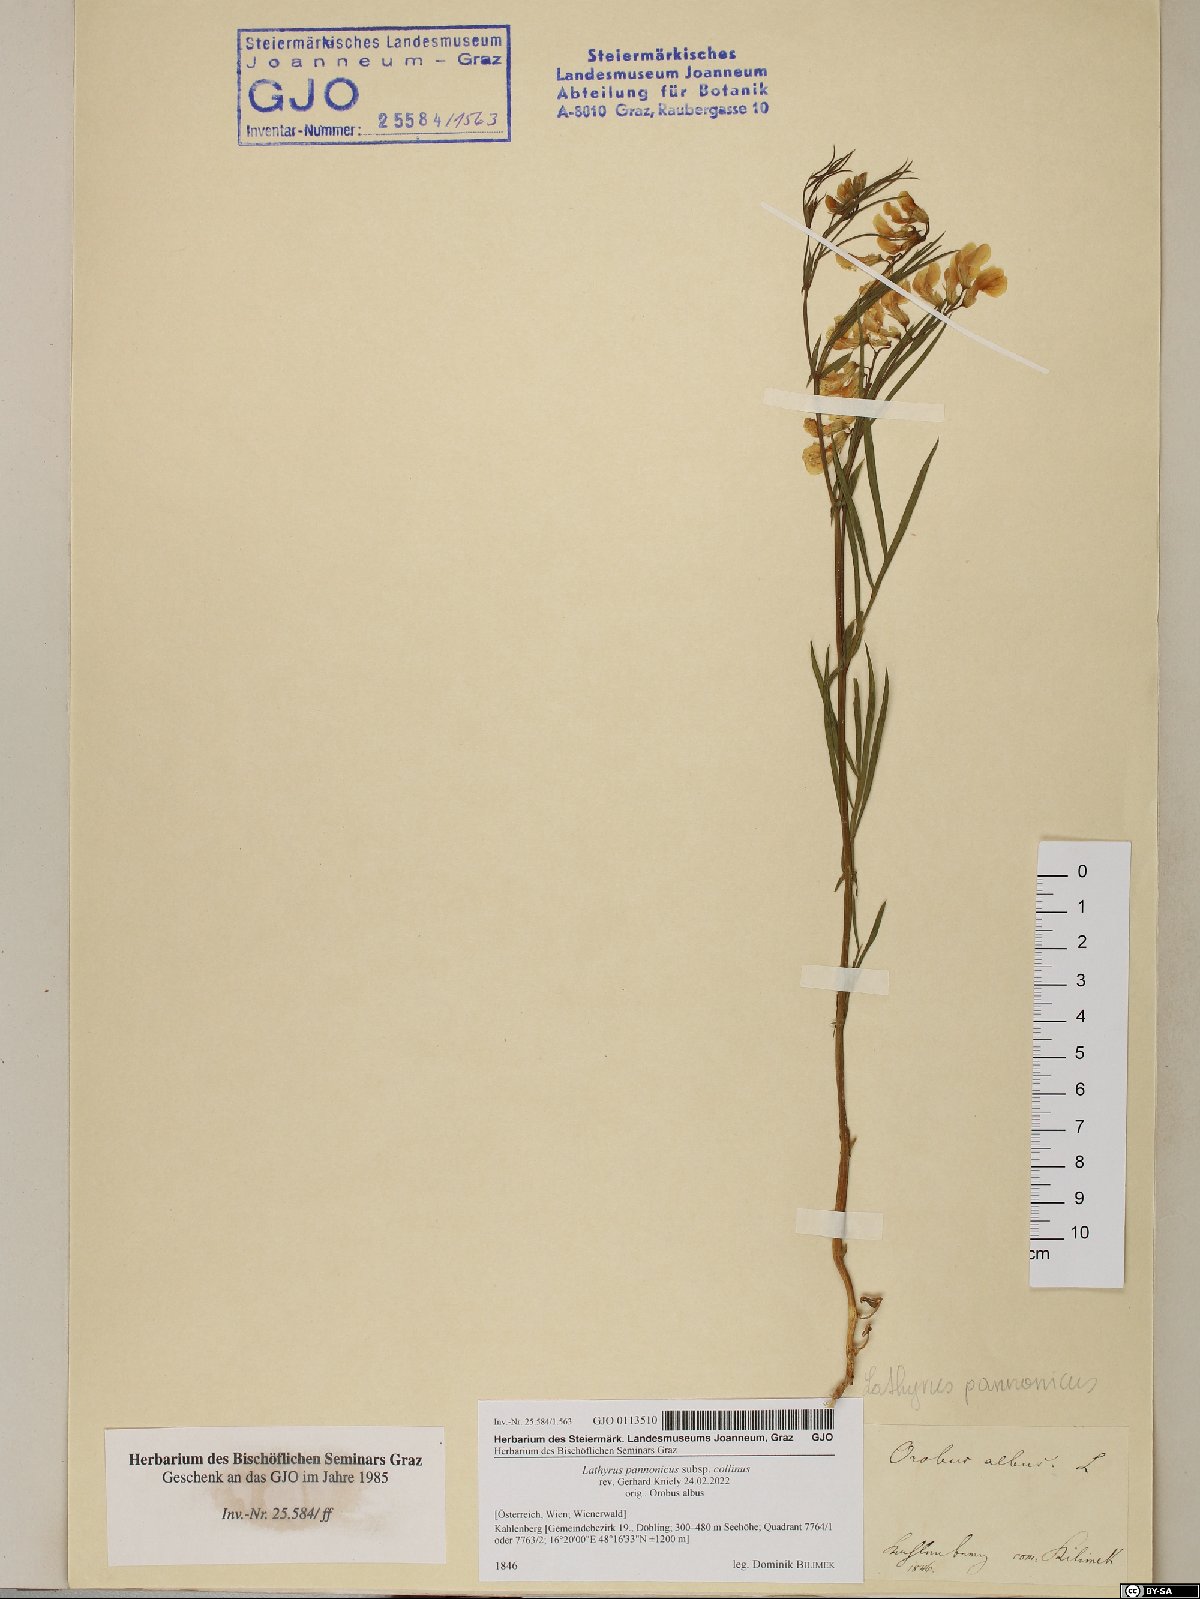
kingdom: Plantae
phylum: Tracheophyta
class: Magnoliopsida
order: Fabales
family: Fabaceae
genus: Lathyrus
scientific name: Lathyrus pannonicus
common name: Pea
